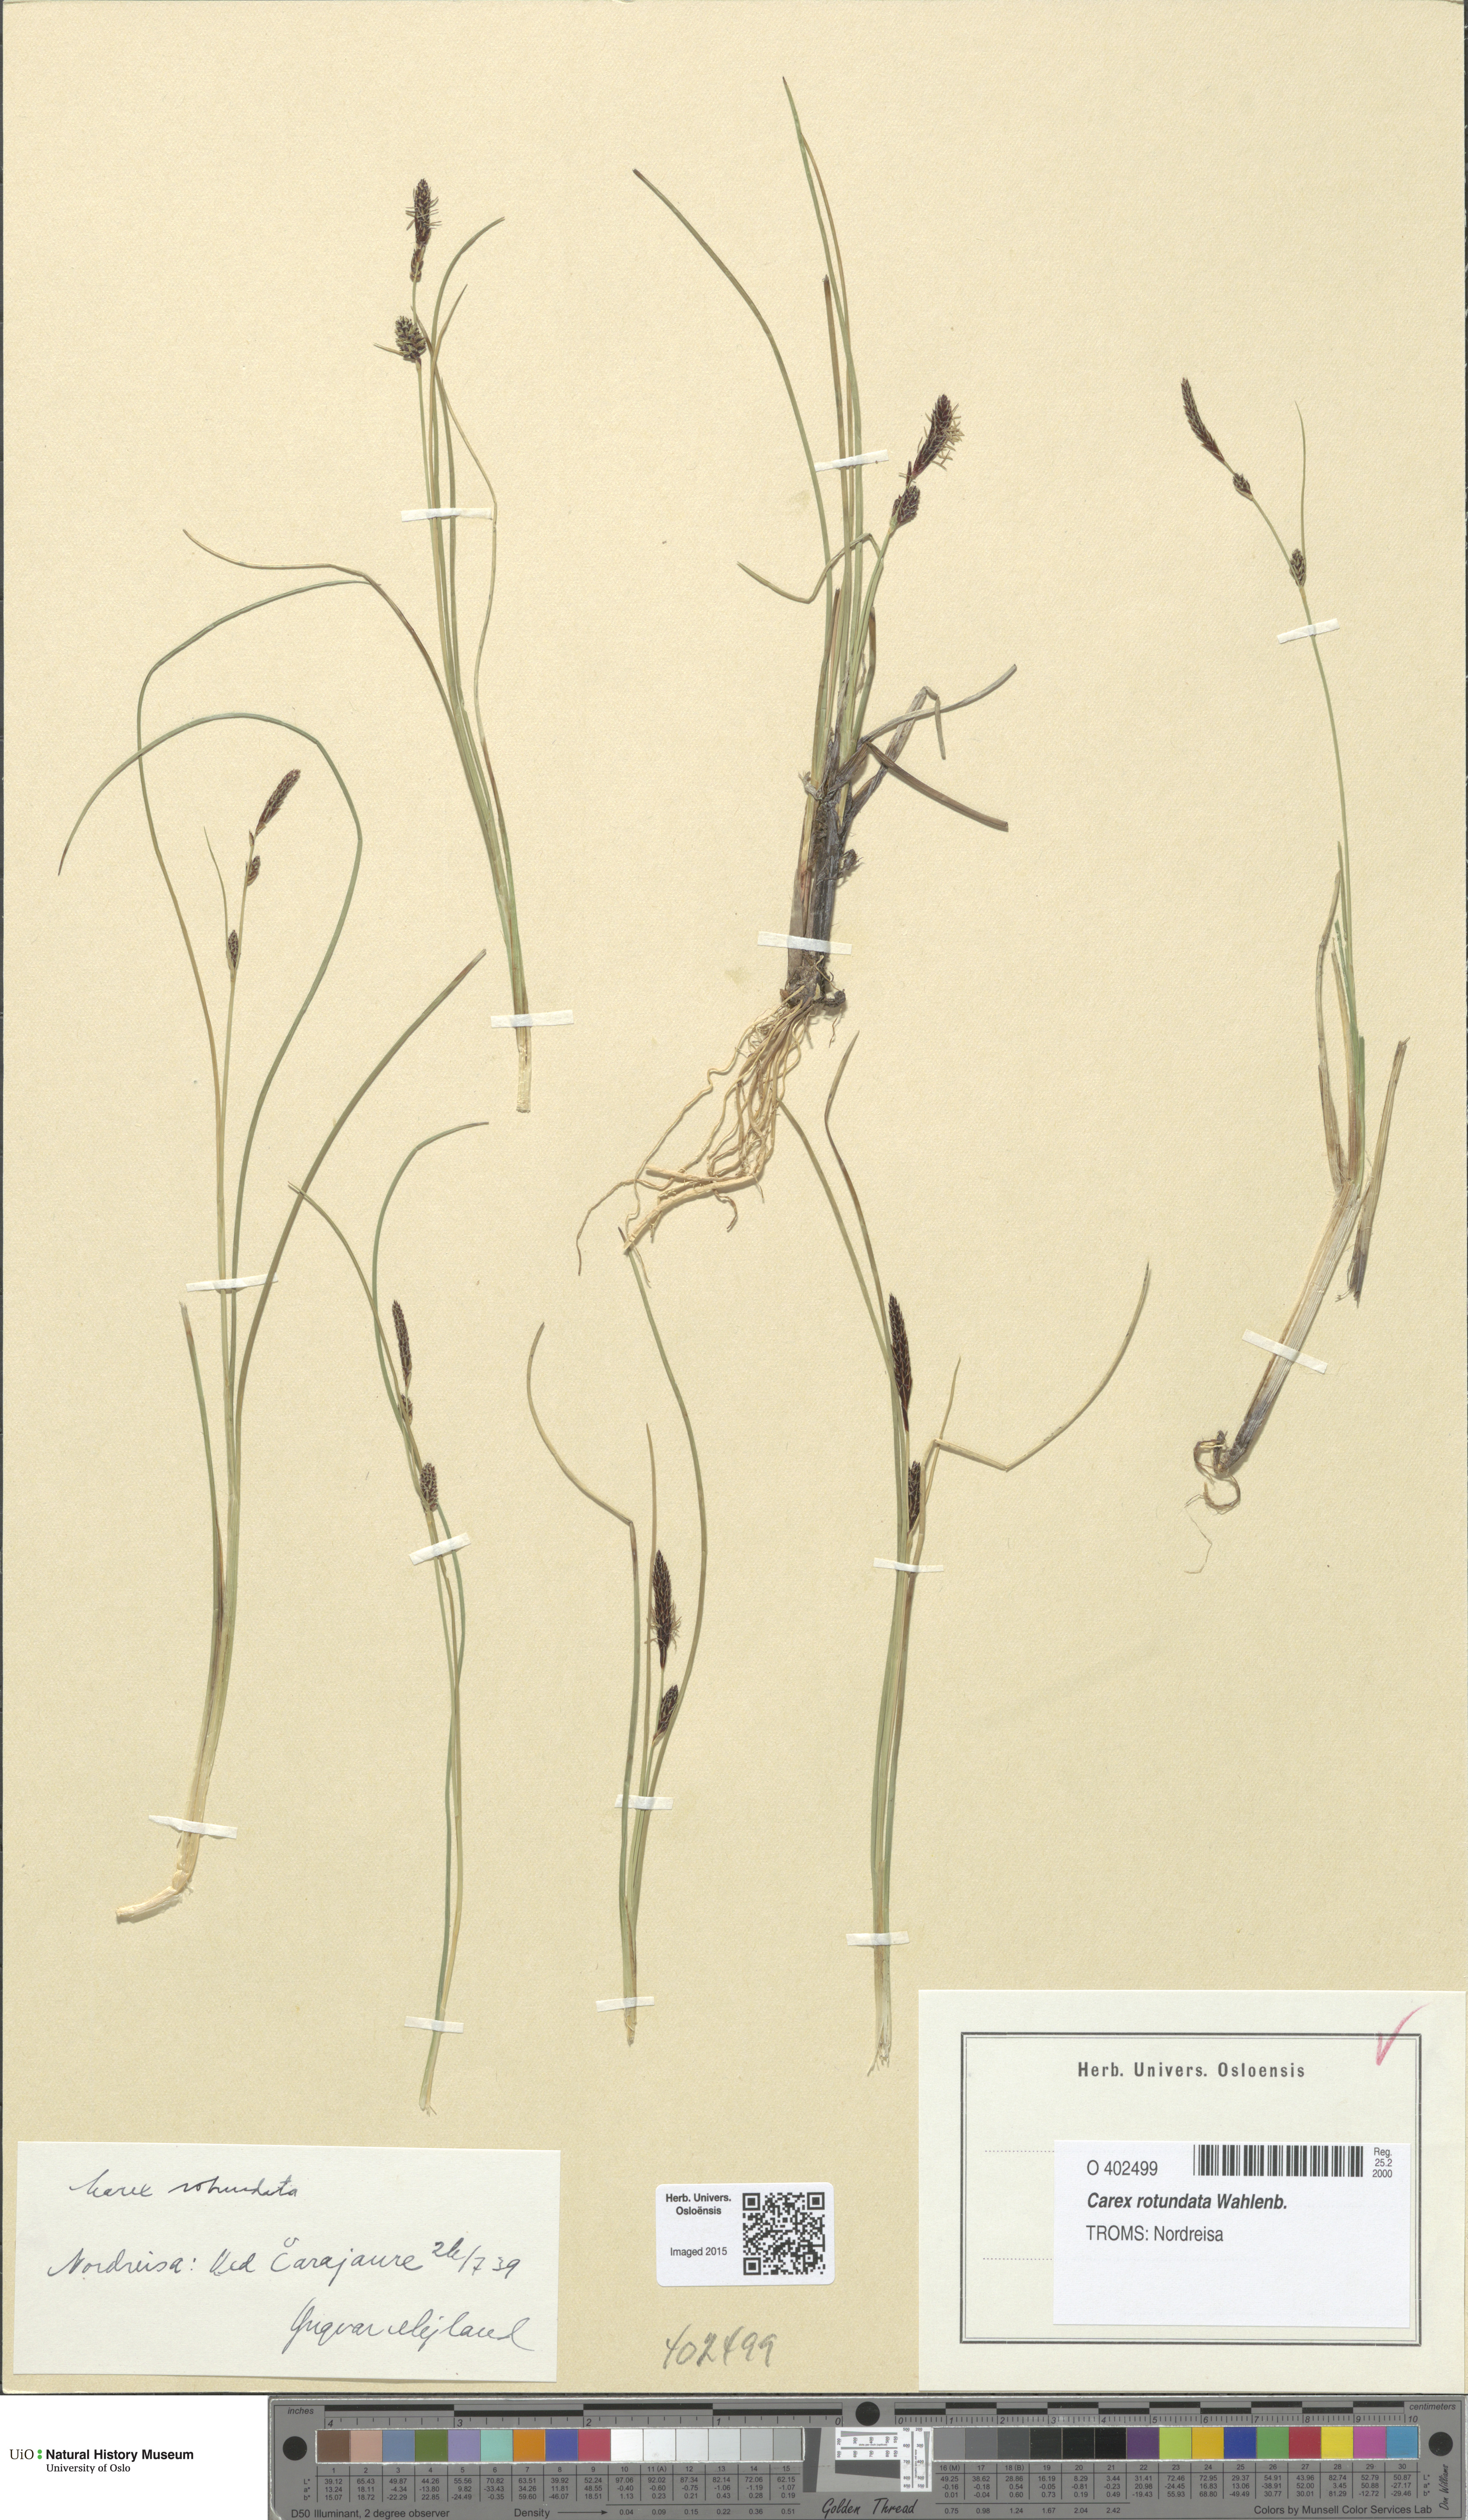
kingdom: Plantae
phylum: Tracheophyta
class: Liliopsida
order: Poales
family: Cyperaceae
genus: Carex
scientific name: Carex rotundata
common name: Round-fruited sedge
